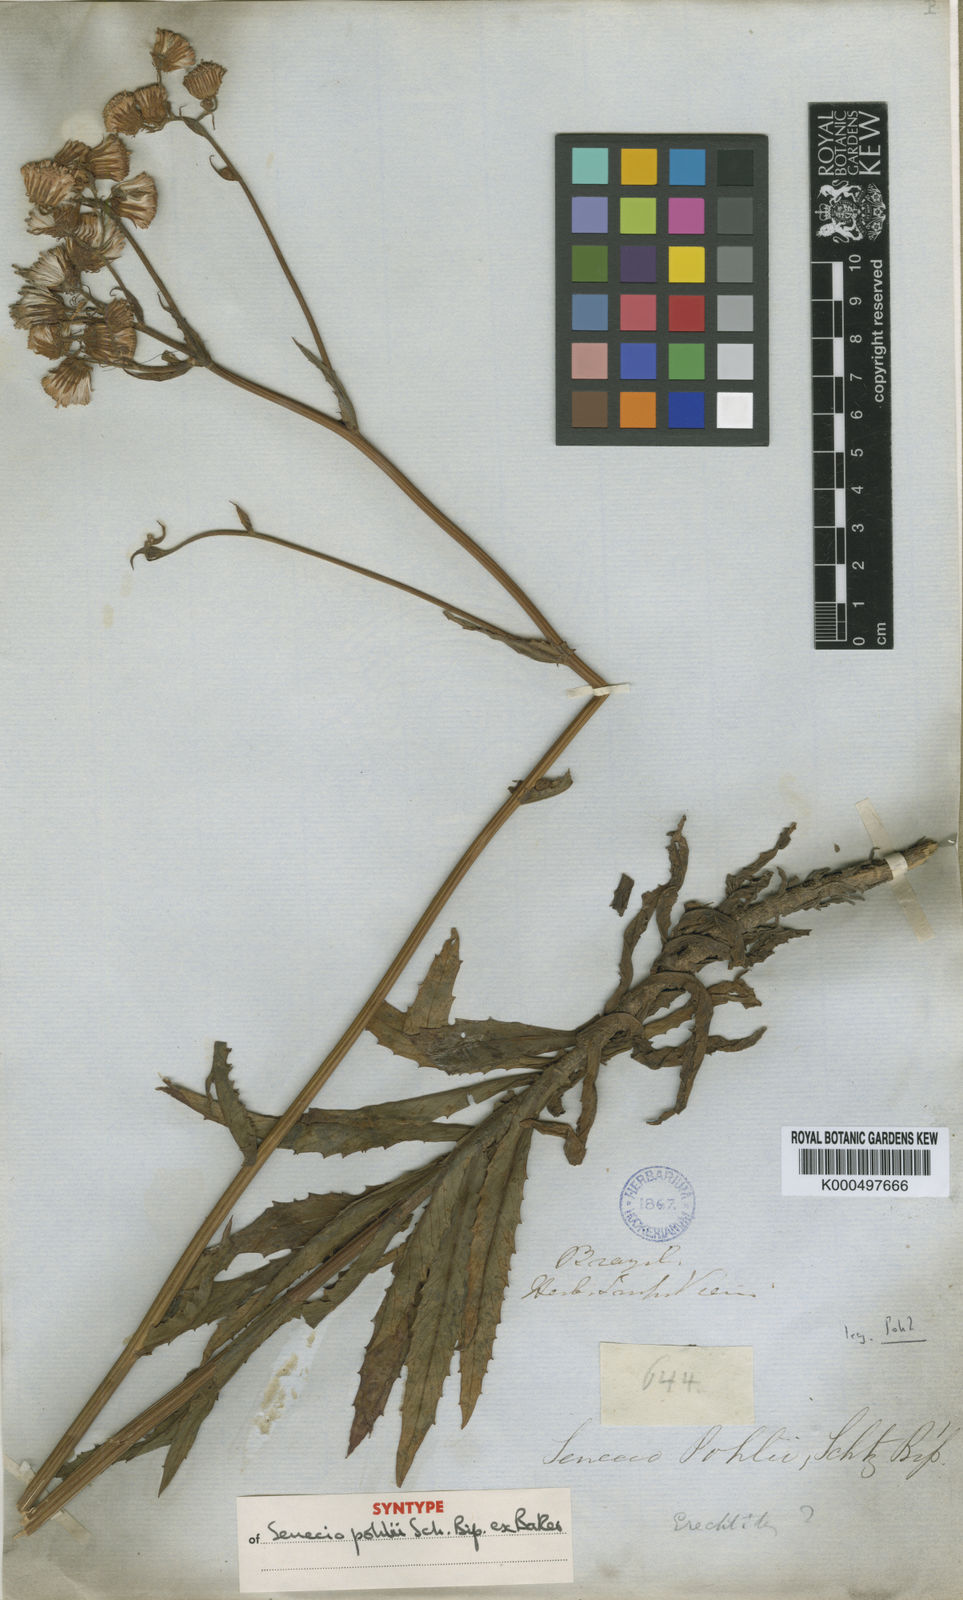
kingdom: Plantae
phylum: Tracheophyta
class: Magnoliopsida
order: Asterales
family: Asteraceae
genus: Senecio
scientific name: Senecio
